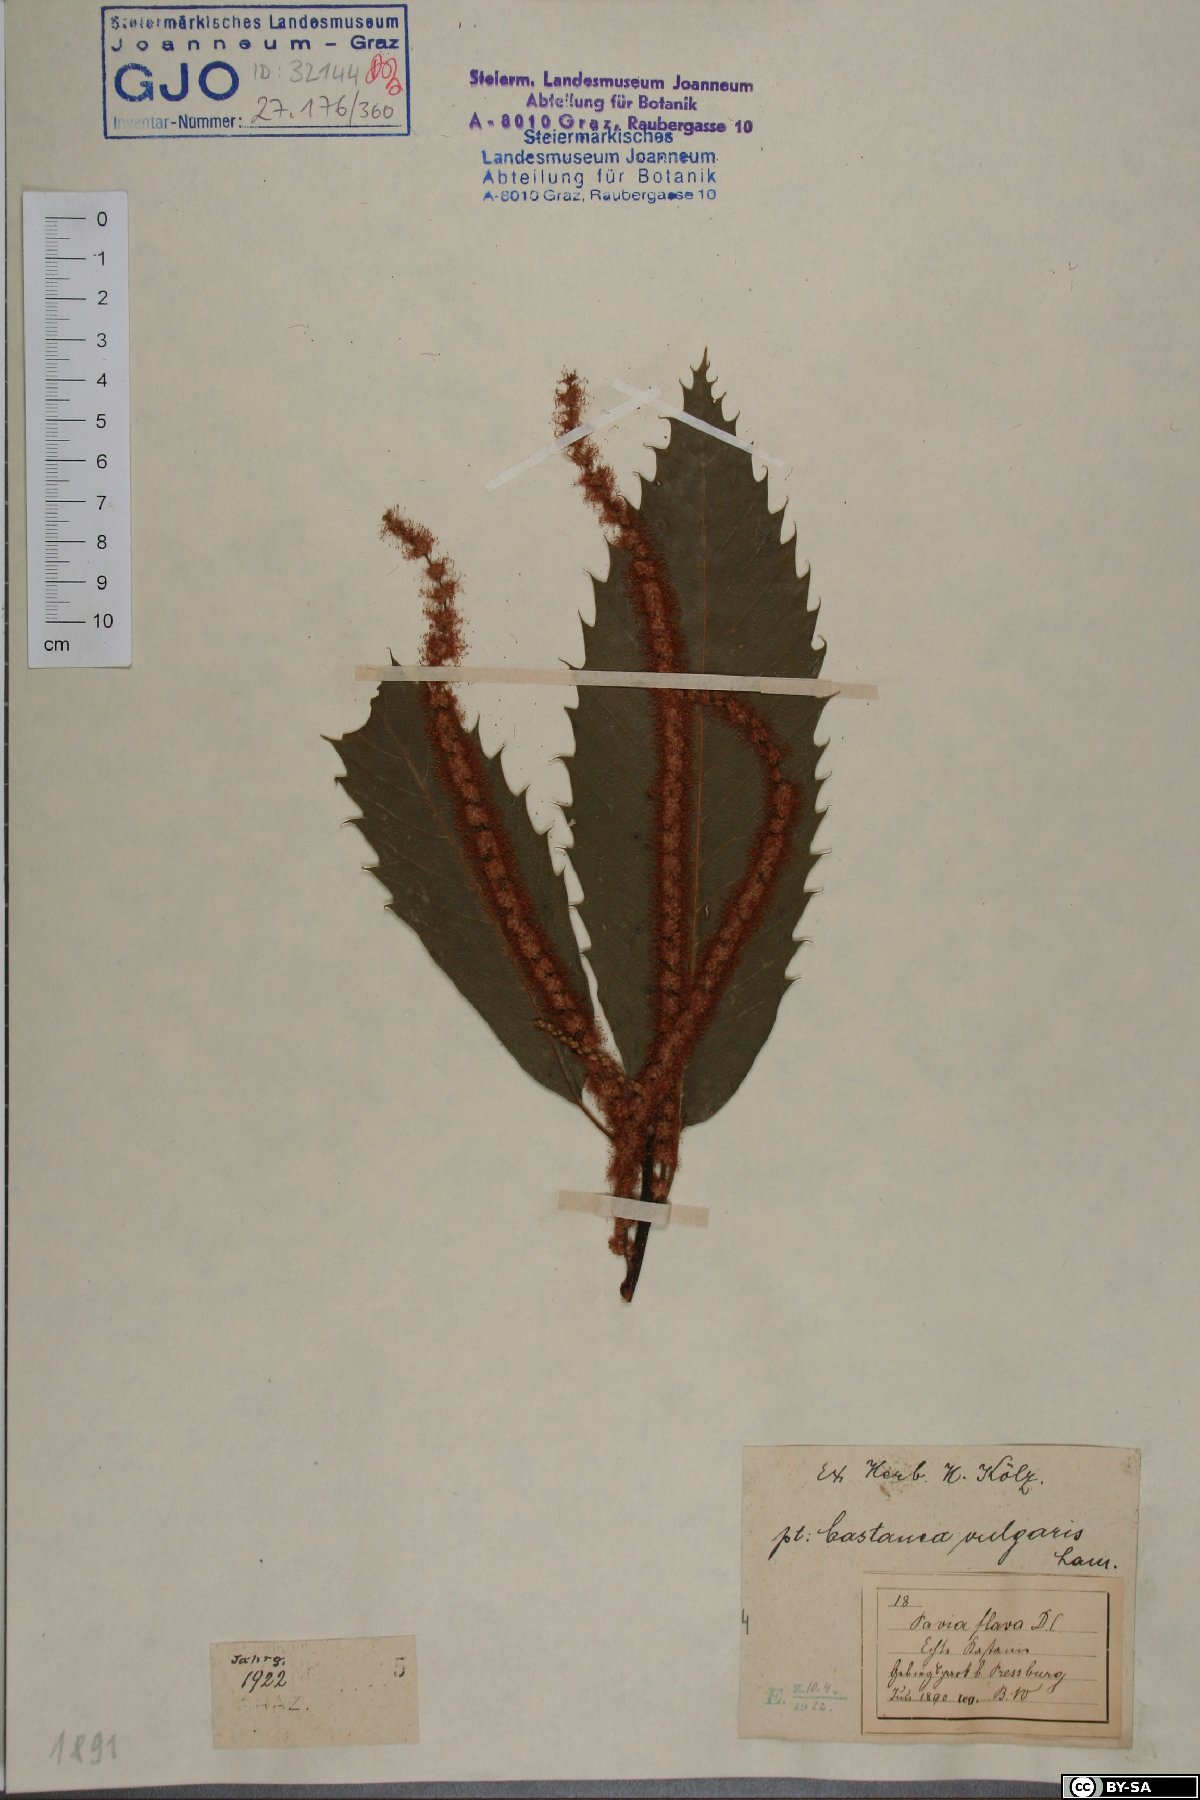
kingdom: Plantae
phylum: Tracheophyta
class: Magnoliopsida
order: Fagales
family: Fagaceae
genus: Castanea
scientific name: Castanea sativa
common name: Sweet chestnut
